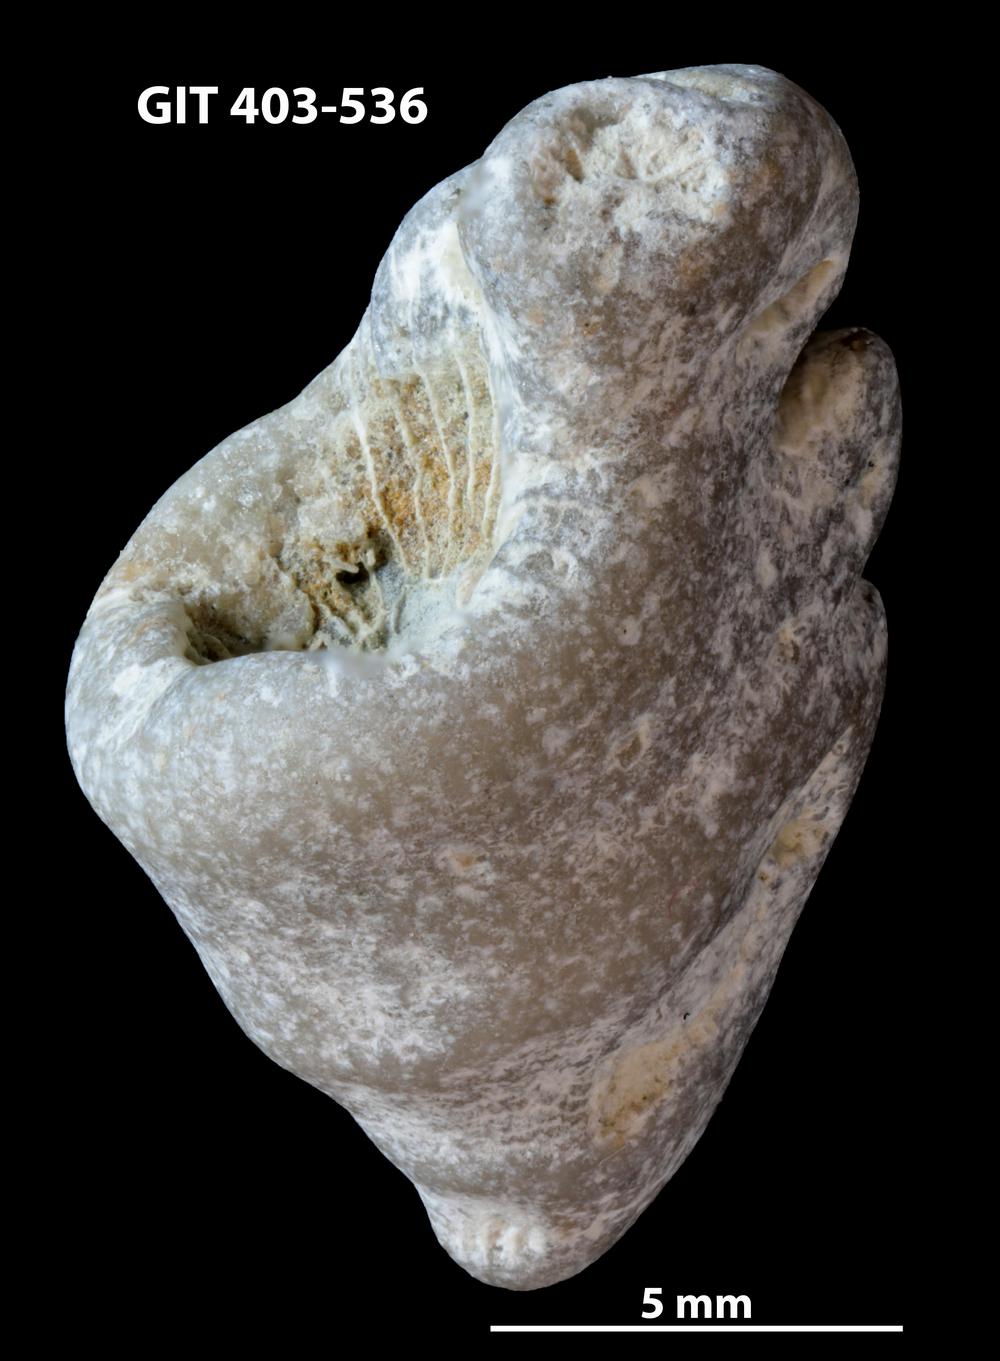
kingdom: Animalia
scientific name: Animalia
